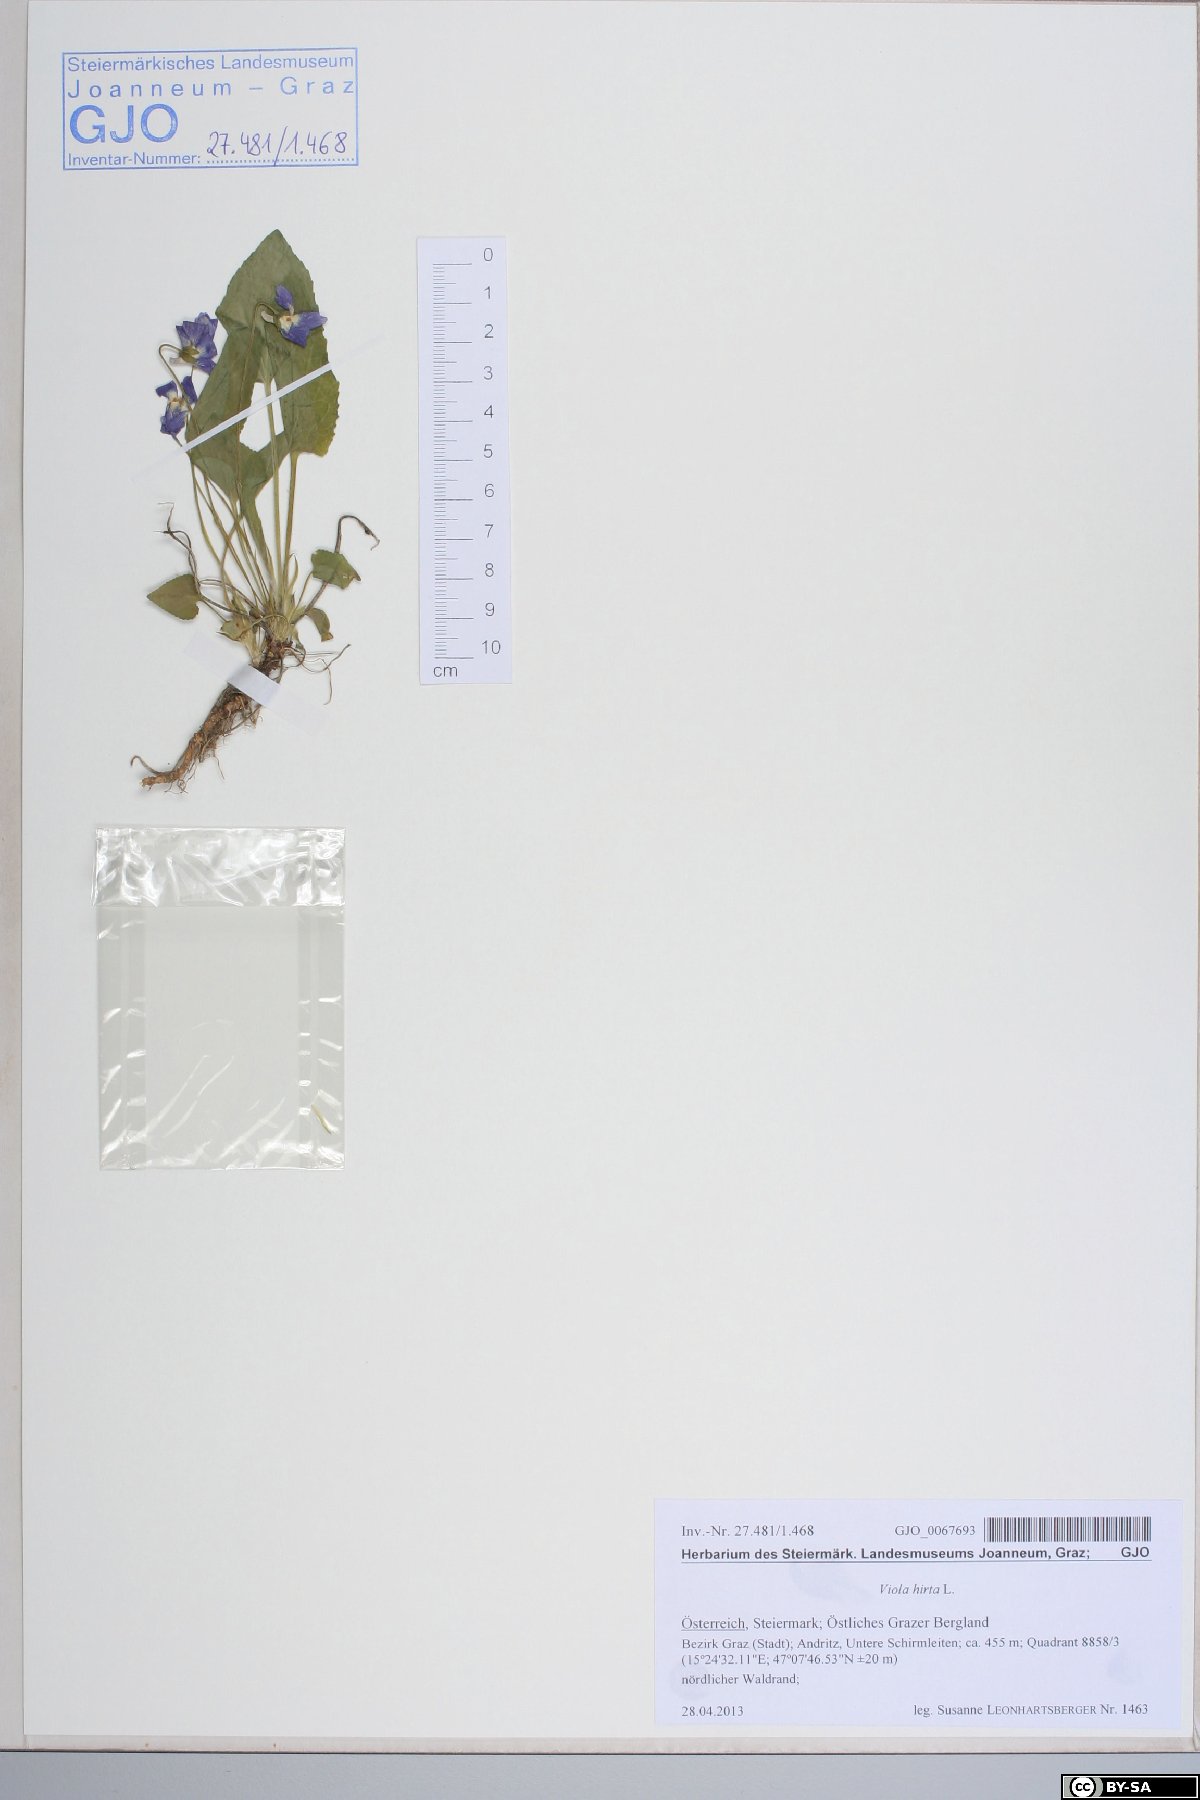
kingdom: Plantae
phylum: Tracheophyta
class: Magnoliopsida
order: Malpighiales
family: Violaceae
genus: Viola
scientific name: Viola hirta
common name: Hairy violet
